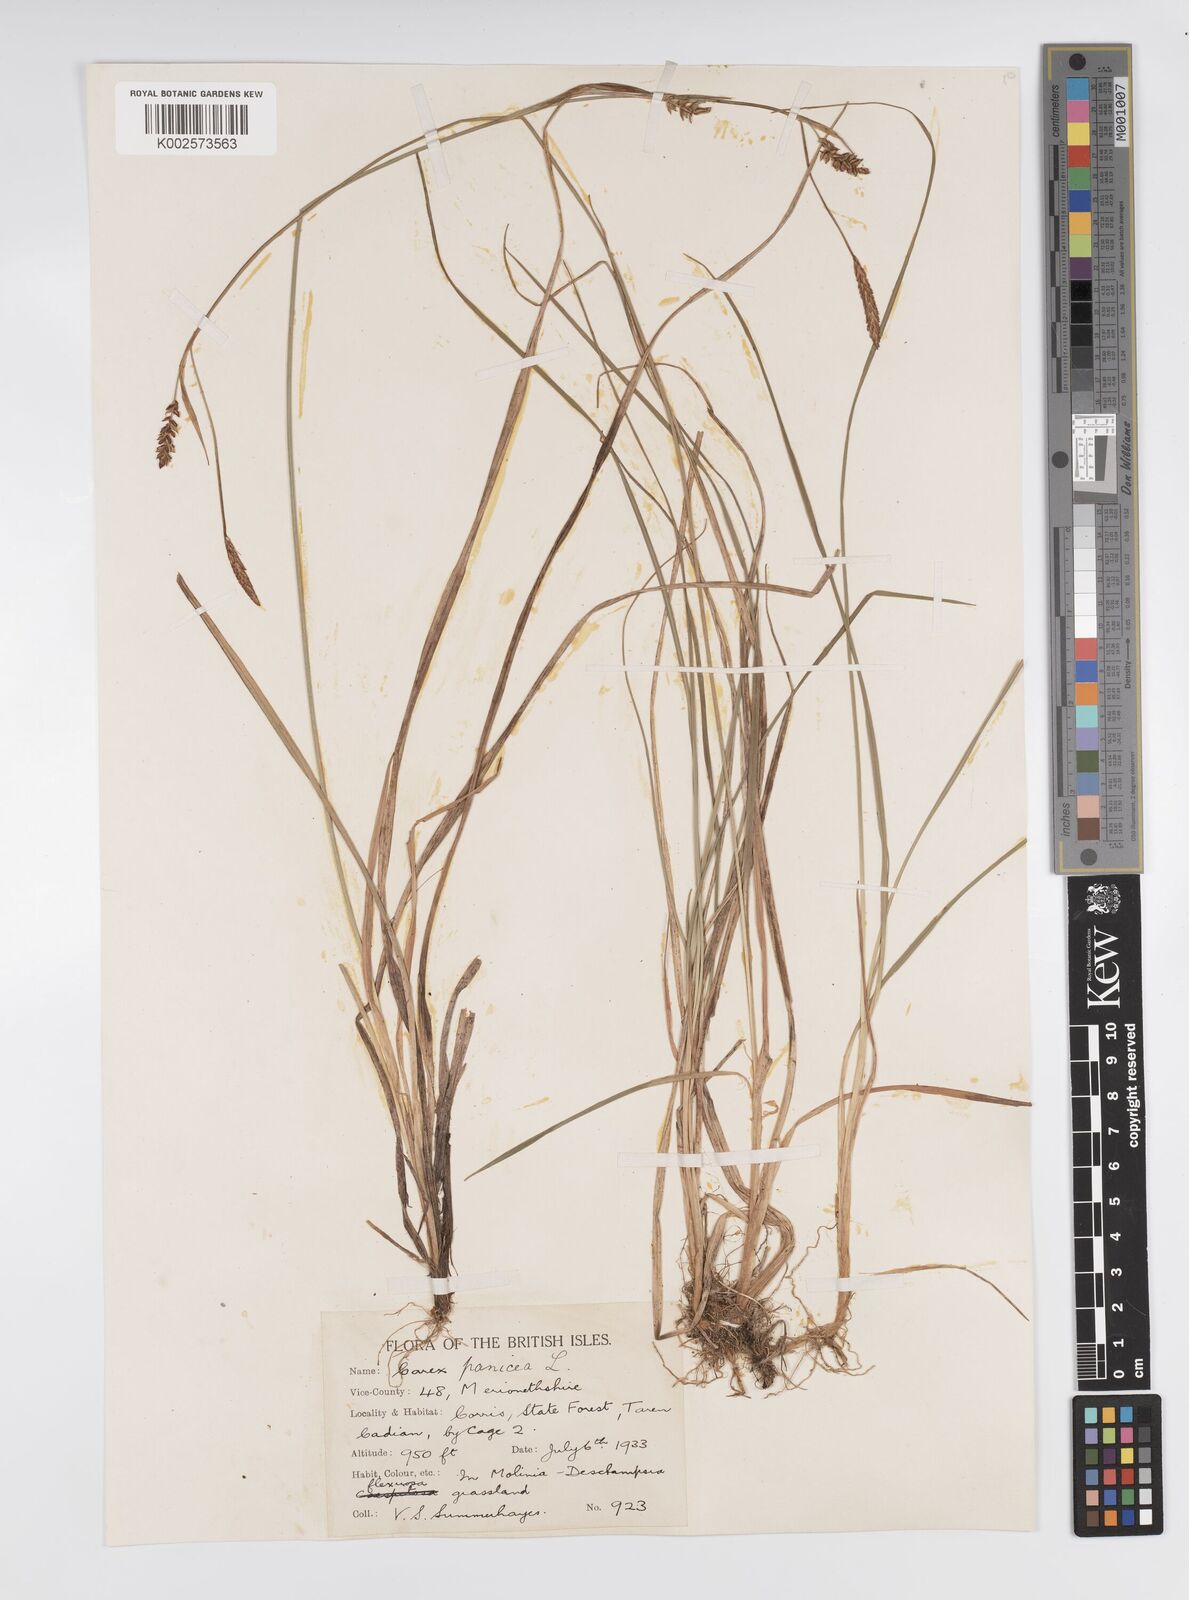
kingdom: Plantae
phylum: Tracheophyta
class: Liliopsida
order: Poales
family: Cyperaceae
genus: Carex
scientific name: Carex panicea
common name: Carnation sedge
